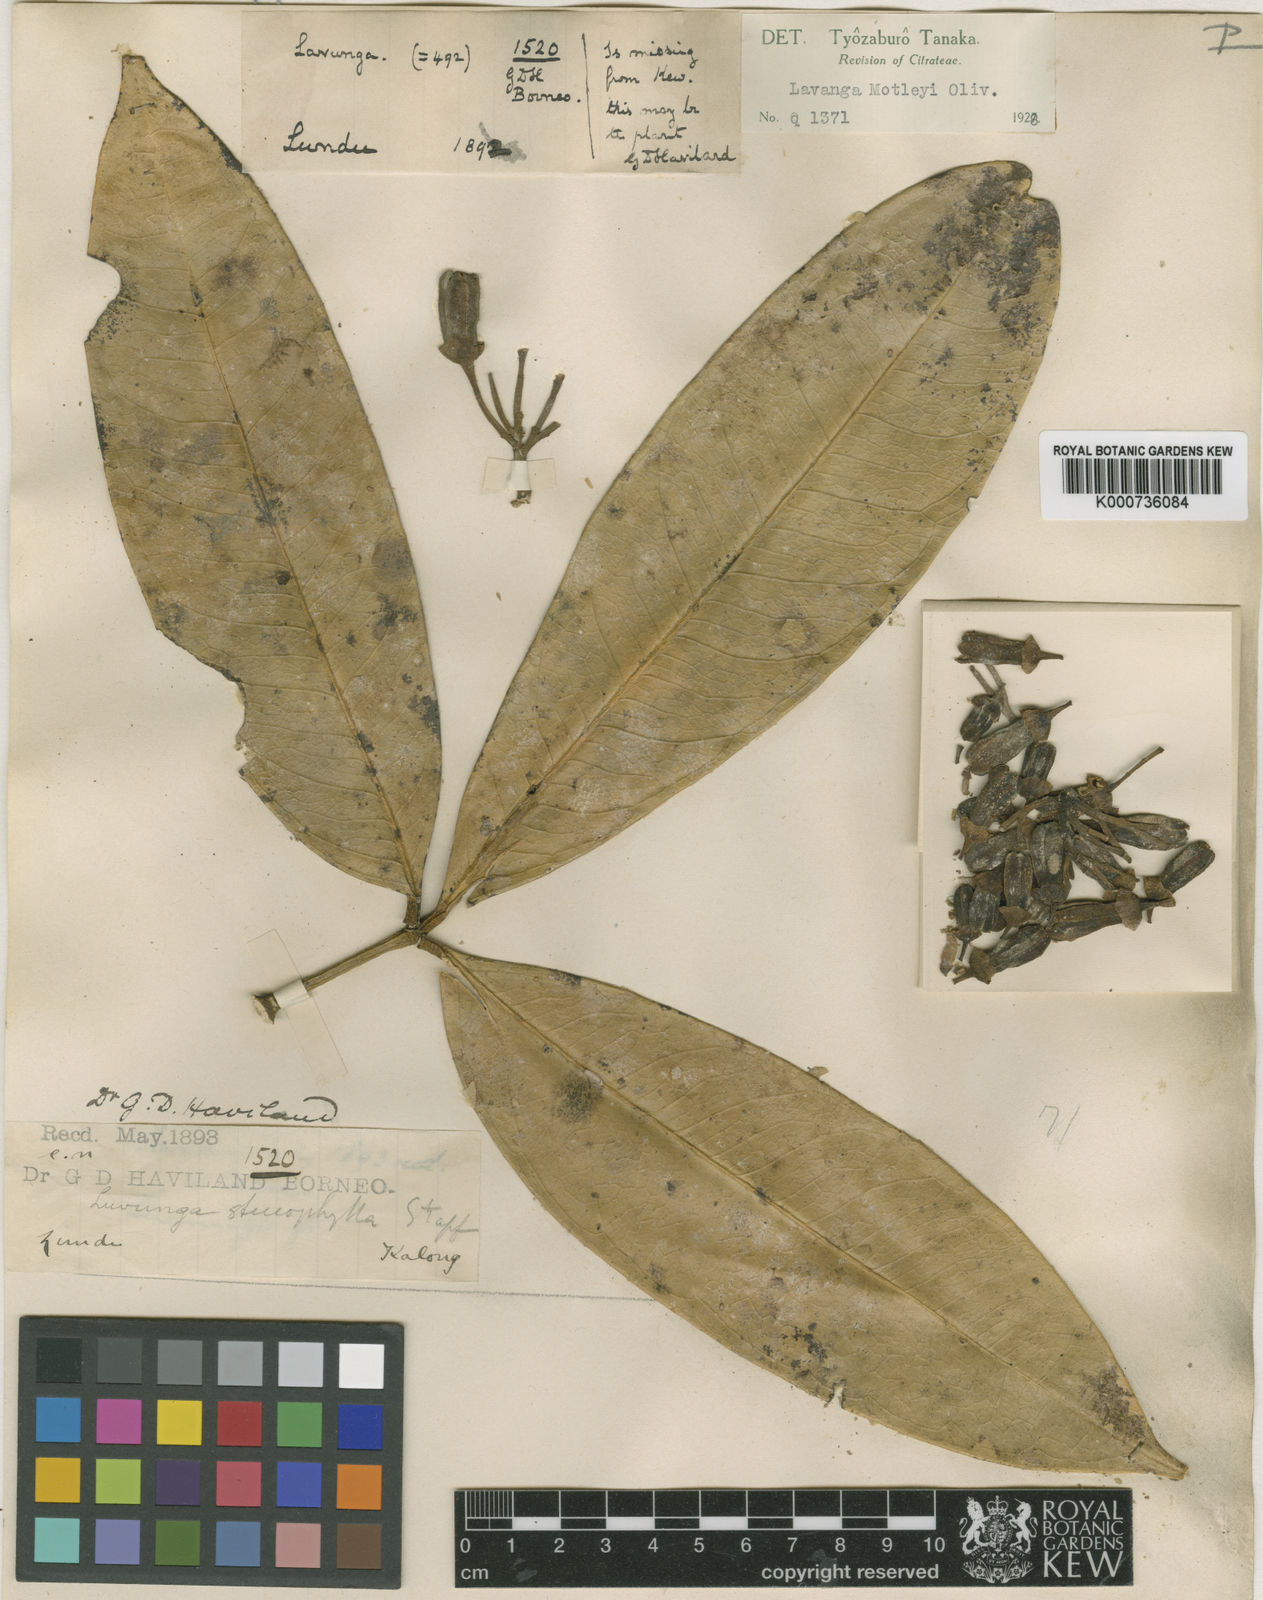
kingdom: Plantae
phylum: Tracheophyta
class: Magnoliopsida
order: Sapindales
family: Rutaceae
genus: Luvunga
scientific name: Luvunga scandens
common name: Indian luvunga
